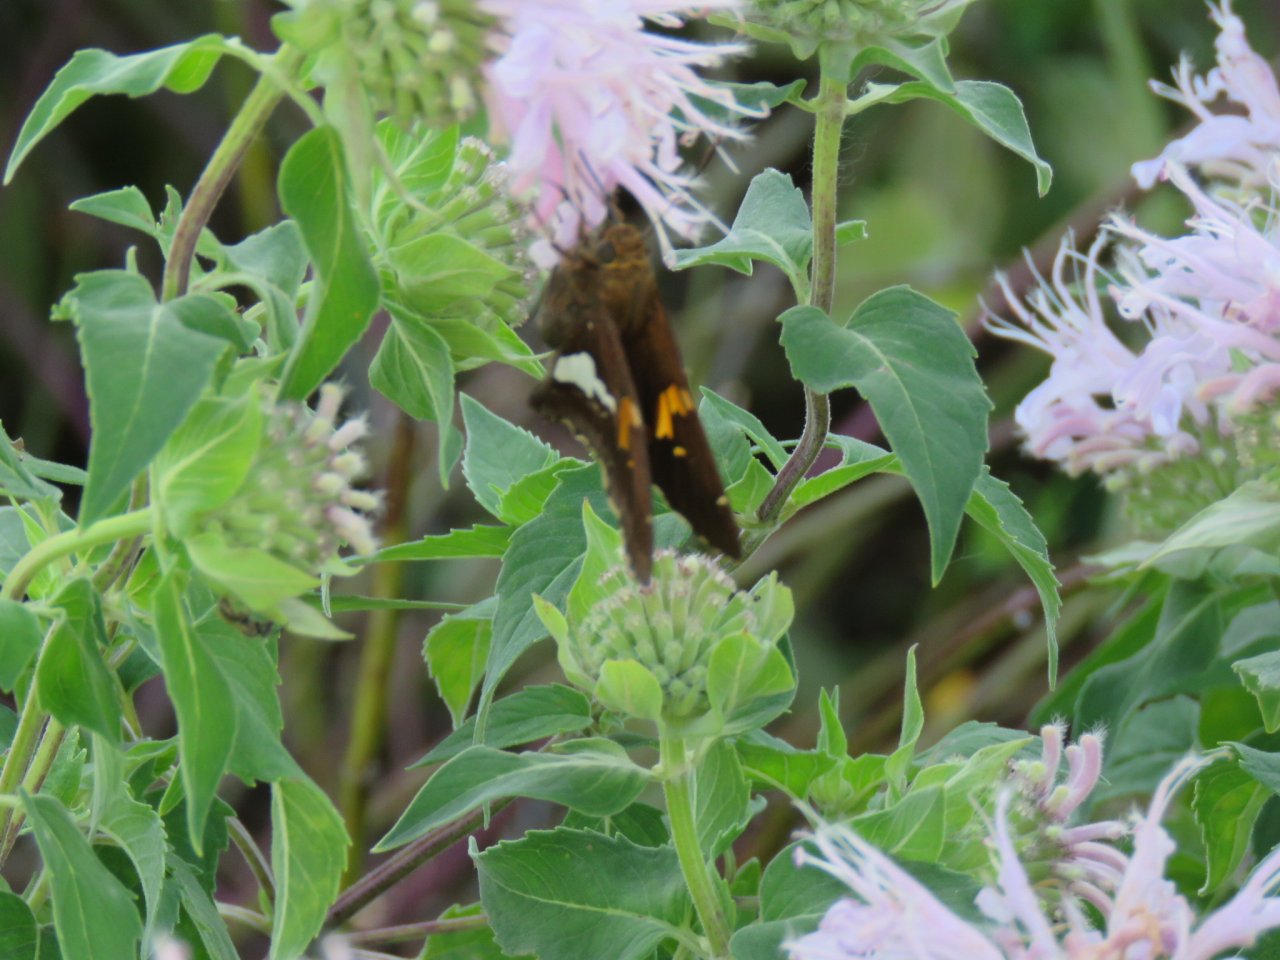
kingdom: Animalia
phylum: Arthropoda
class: Insecta
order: Lepidoptera
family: Hesperiidae
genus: Epargyreus
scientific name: Epargyreus clarus
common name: Silver-spotted Skipper
